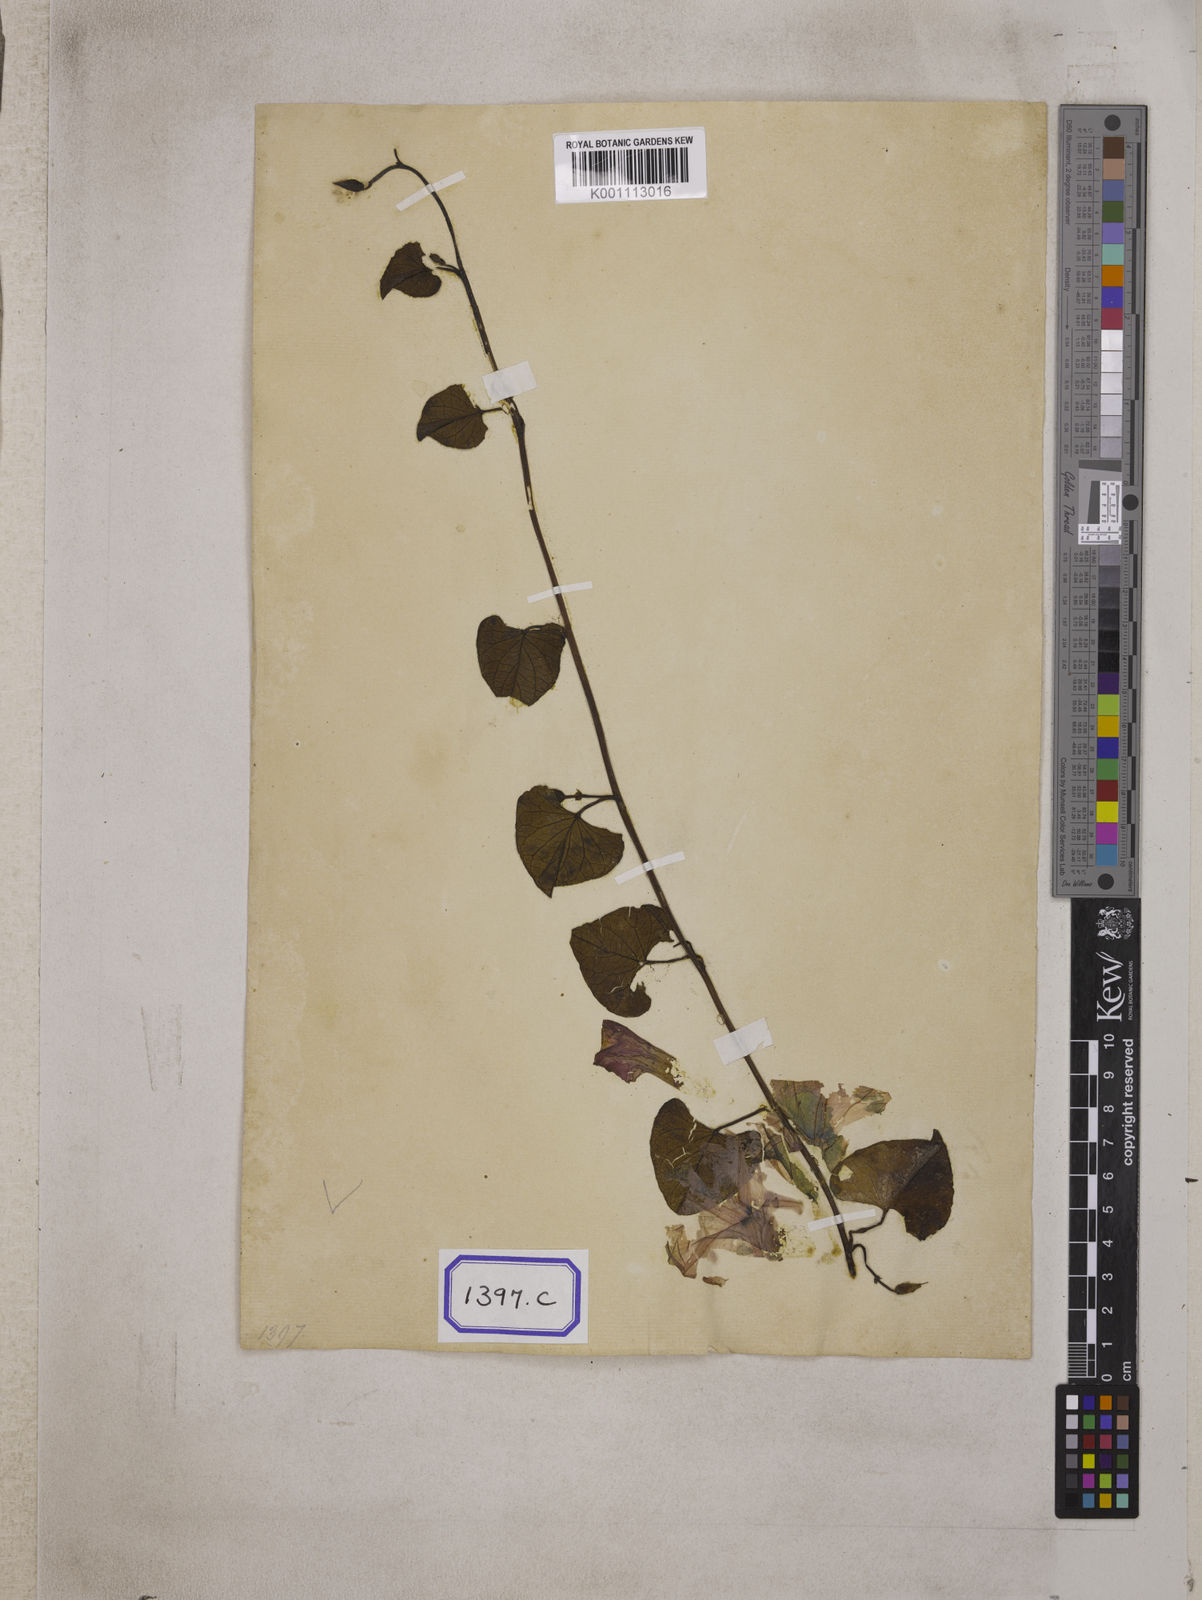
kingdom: Plantae
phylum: Tracheophyta
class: Magnoliopsida
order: Solanales
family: Convolvulaceae
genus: Ipomoea
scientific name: Ipomoea asarifolia
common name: Ginger-leaf morning-glory
